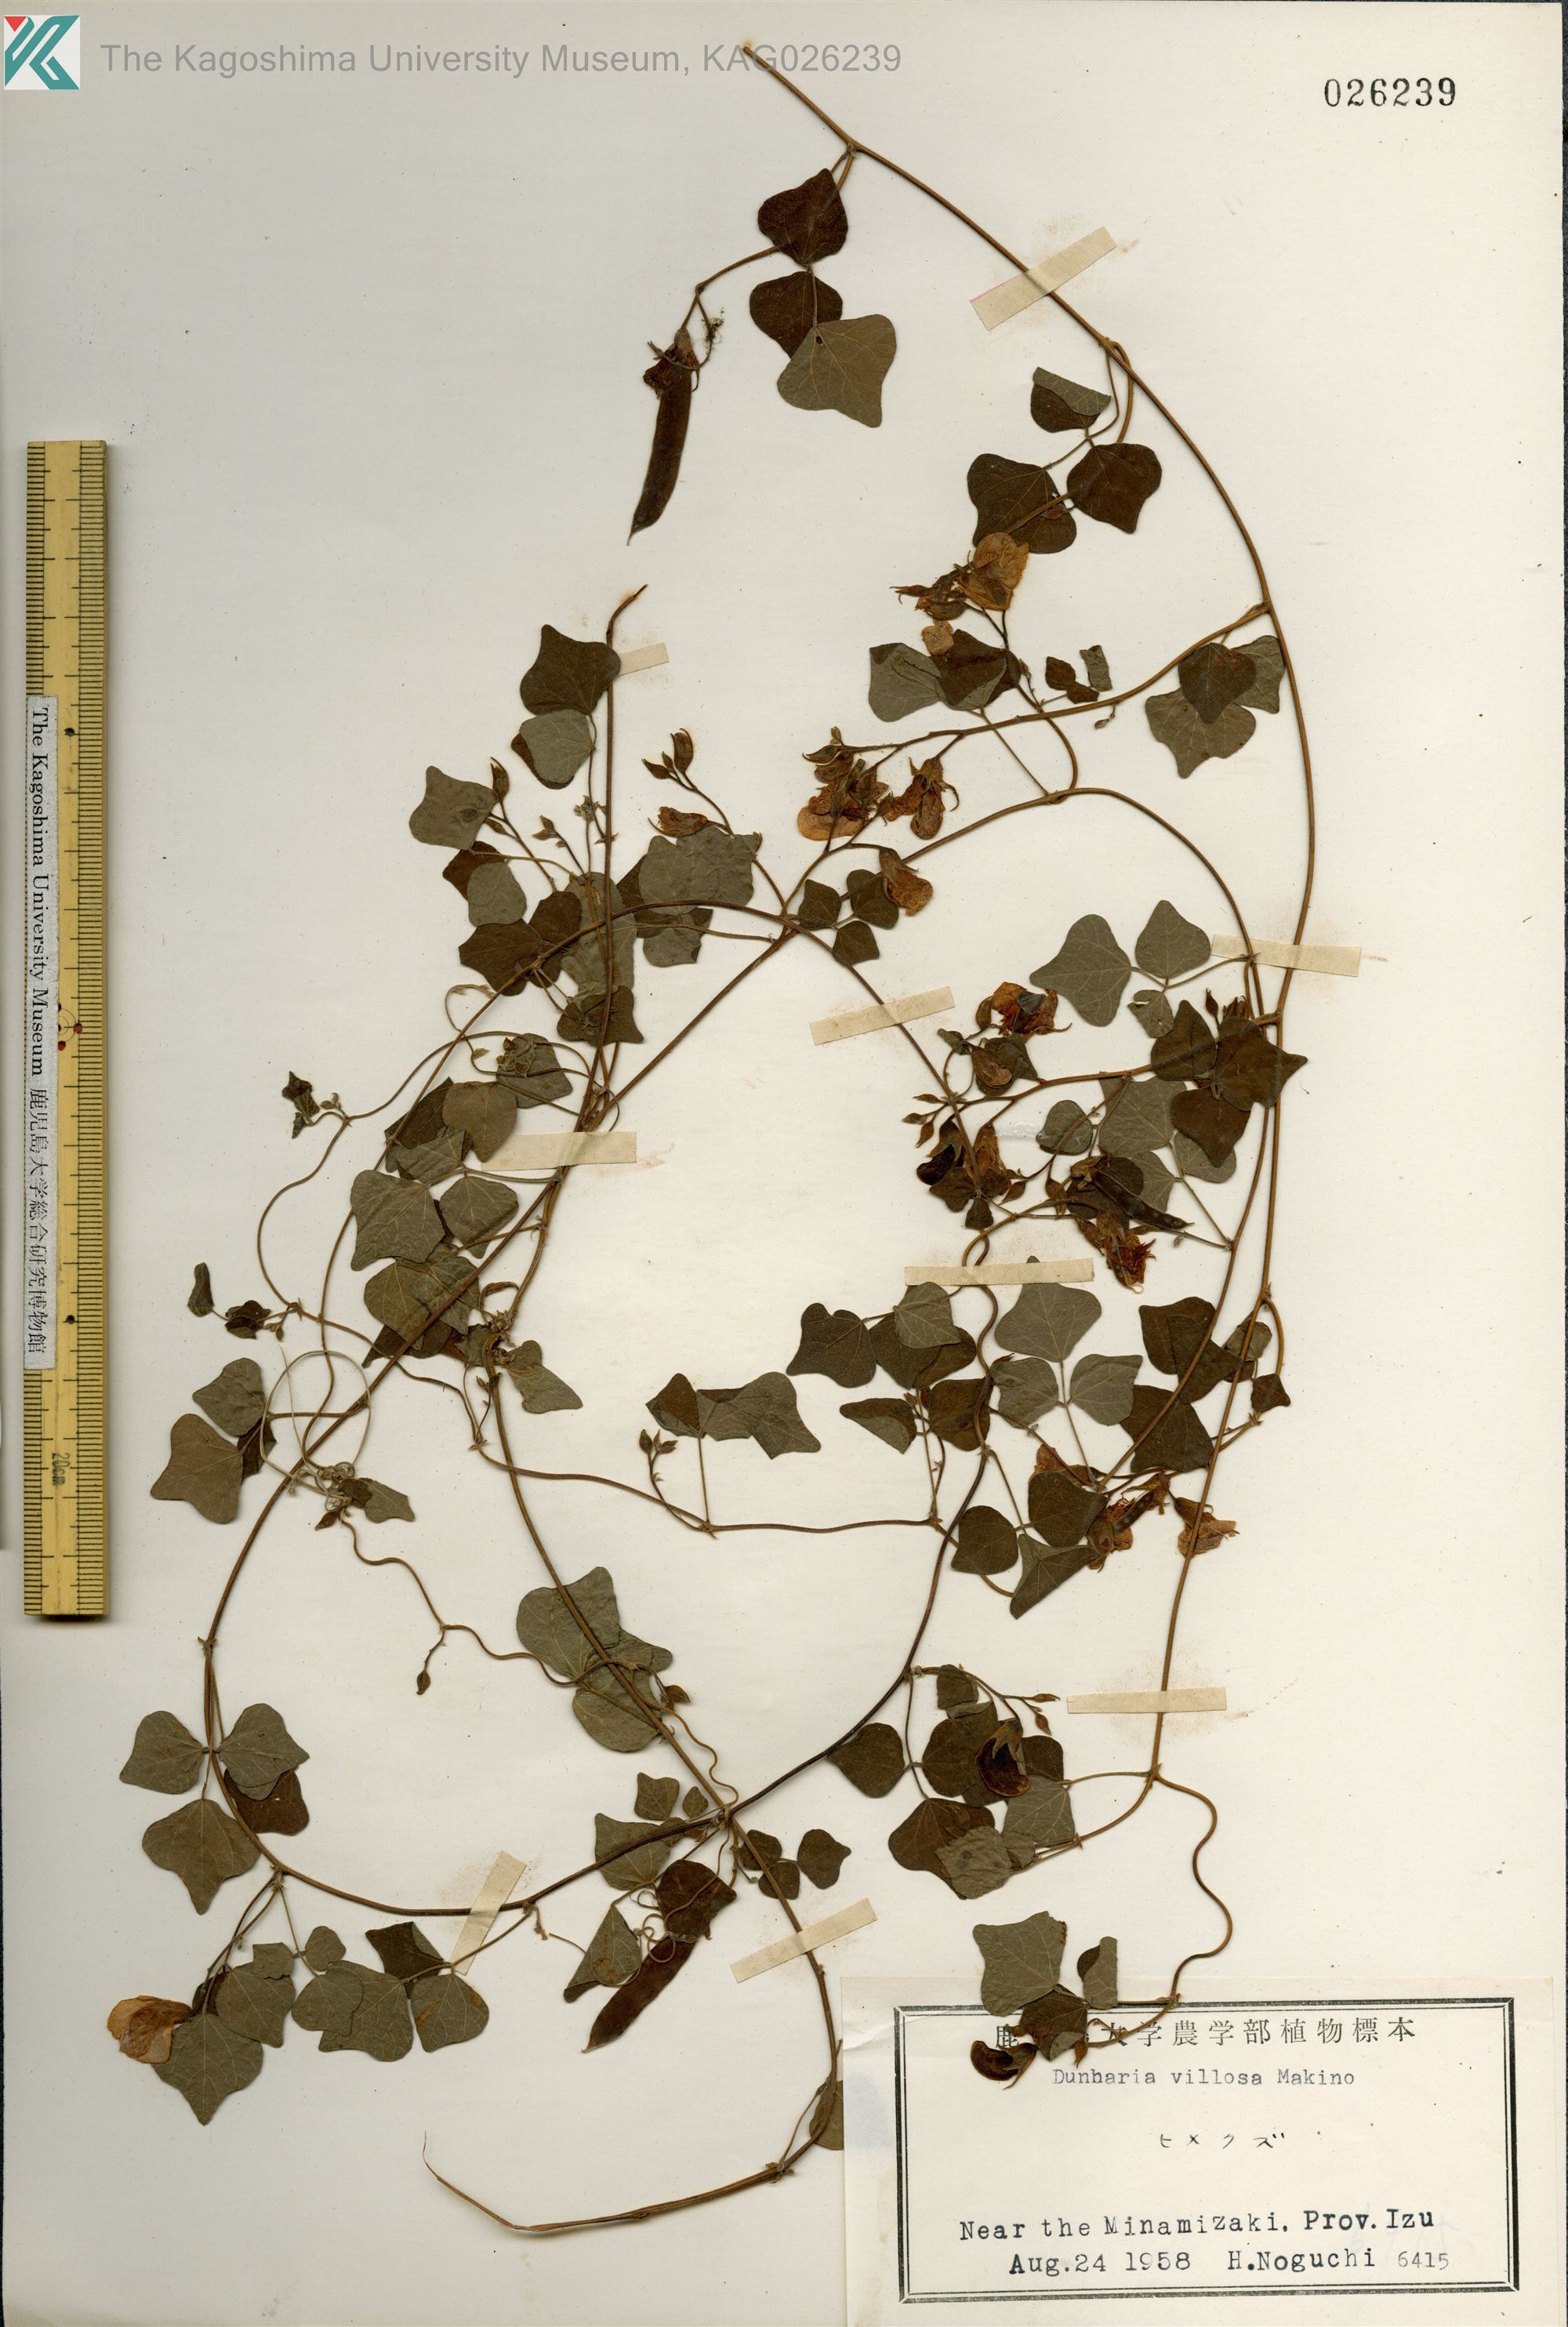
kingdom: Plantae
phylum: Tracheophyta
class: Magnoliopsida
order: Fabales
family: Fabaceae
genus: Dunbaria
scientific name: Dunbaria villosa
